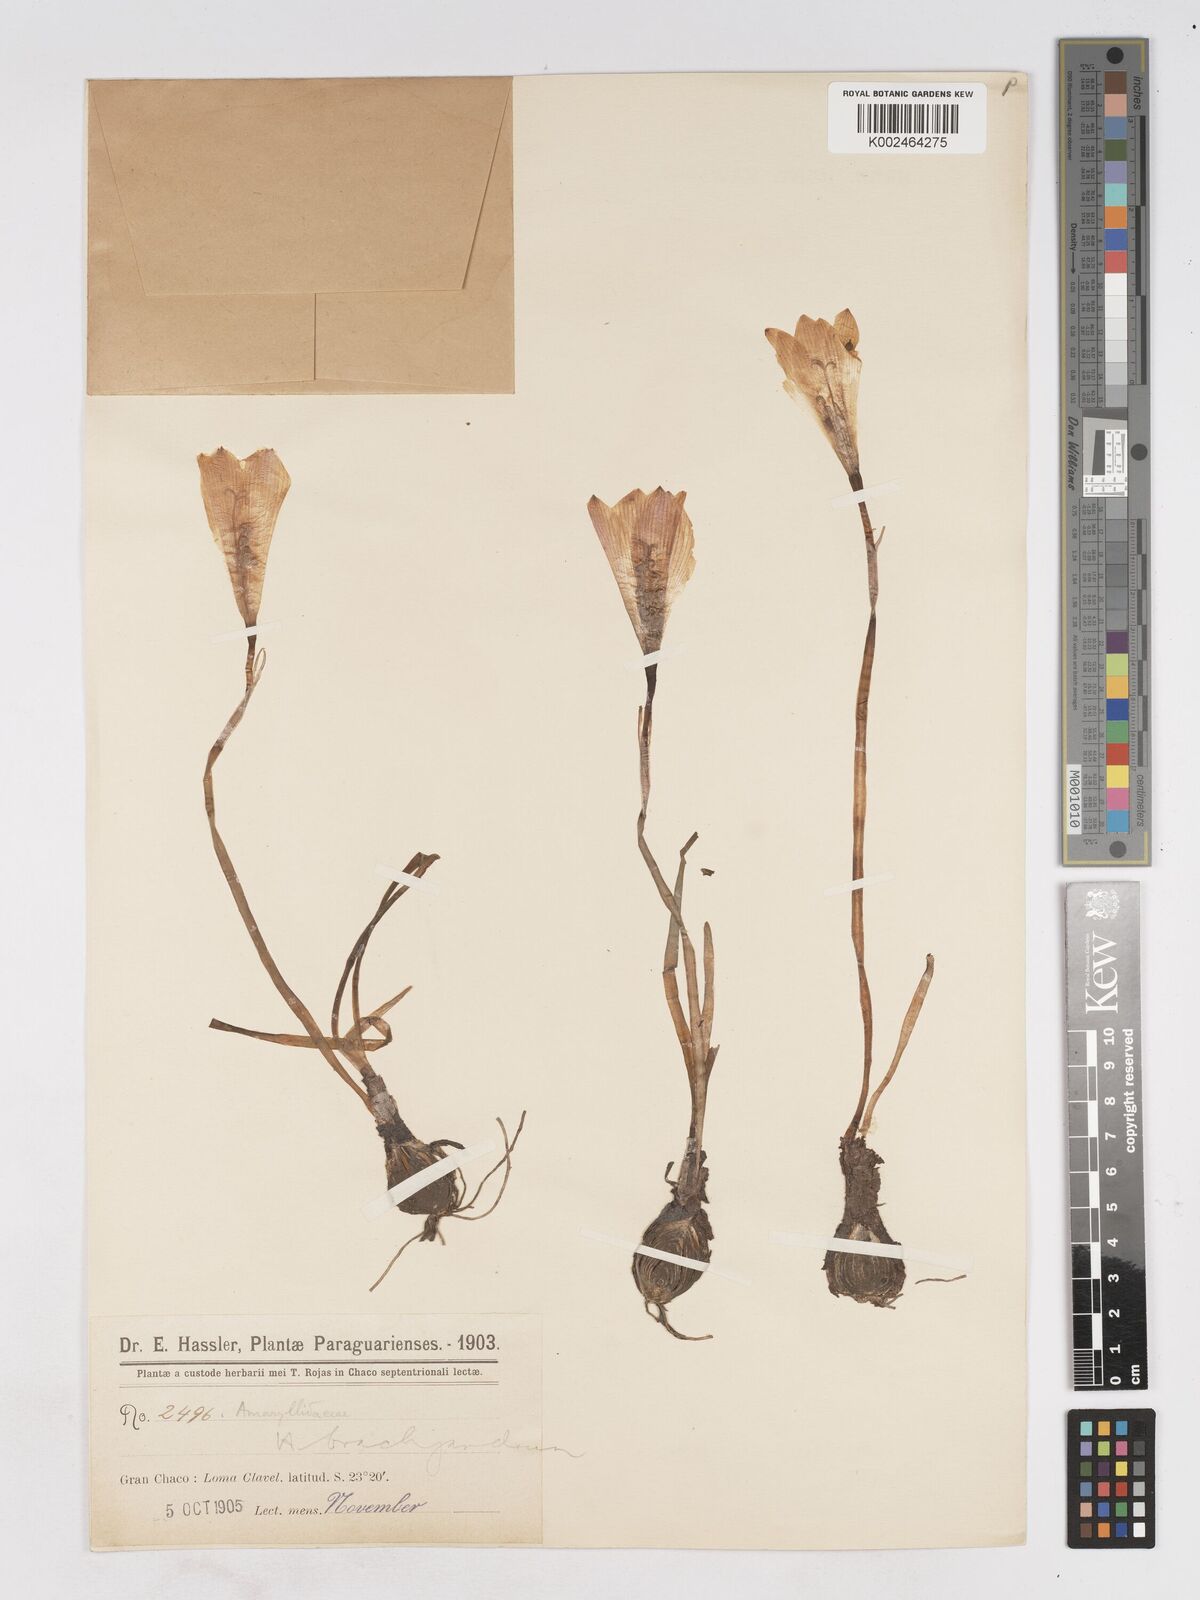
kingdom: Plantae
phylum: Tracheophyta
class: Liliopsida
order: Asparagales
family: Amaryllidaceae
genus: Zephyranthes
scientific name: Zephyranthes brachyandra
